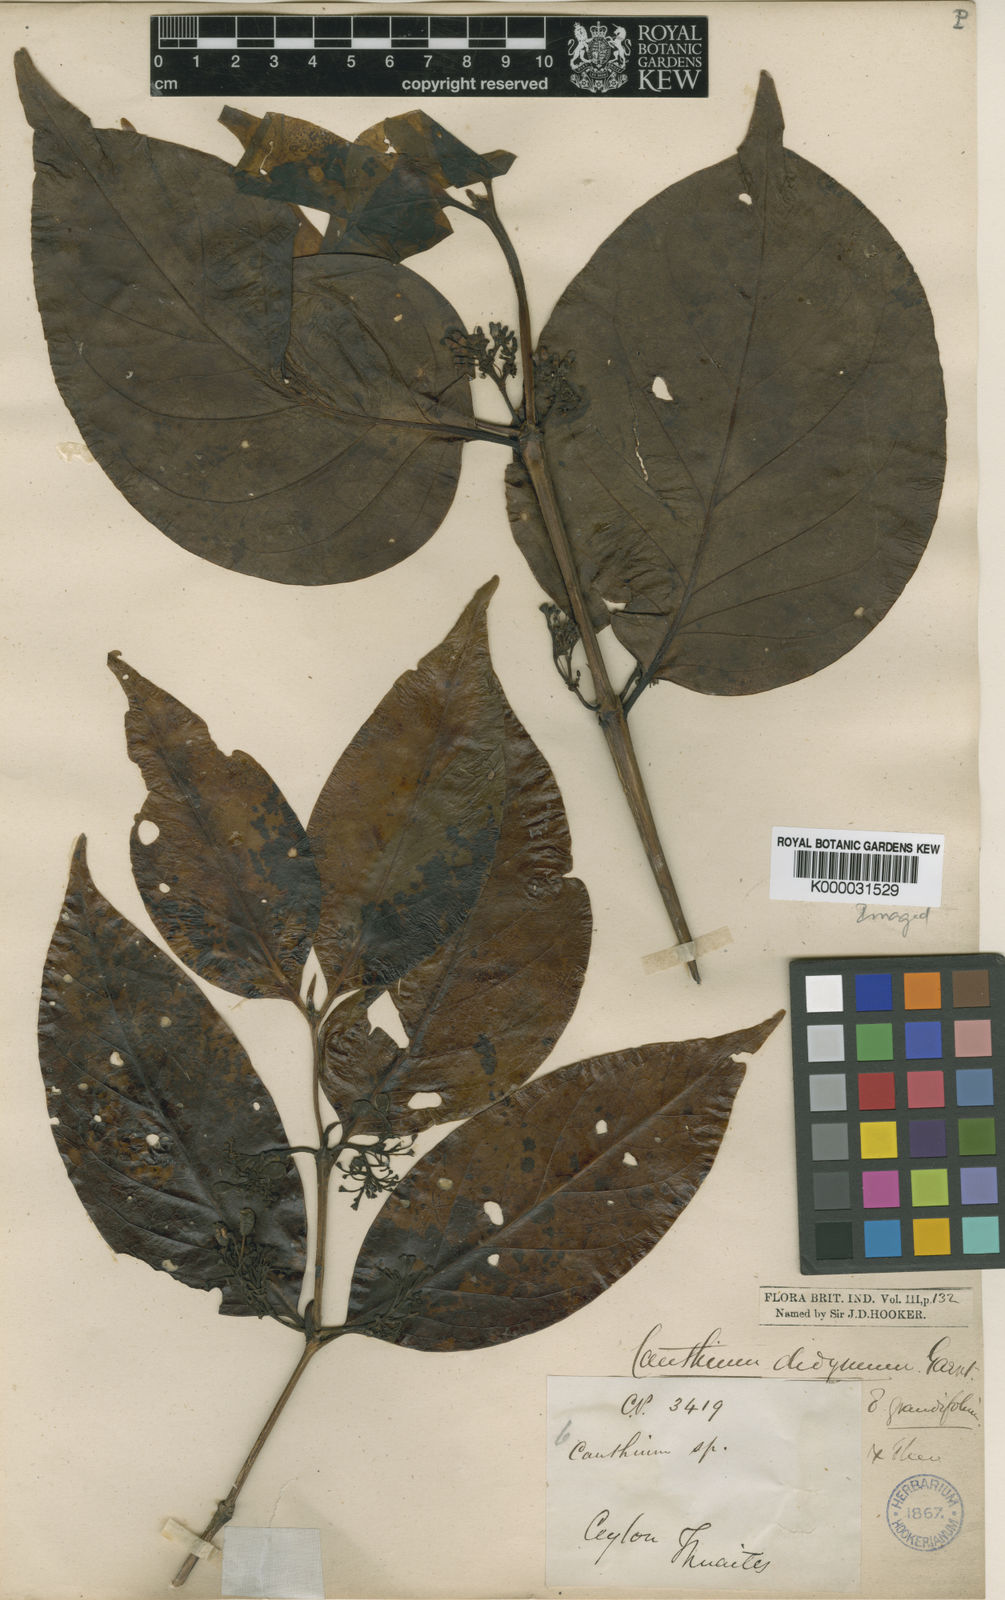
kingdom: Plantae
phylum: Tracheophyta
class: Magnoliopsida
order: Gentianales
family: Rubiaceae
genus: Psydrax
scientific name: Psydrax grandifolius
